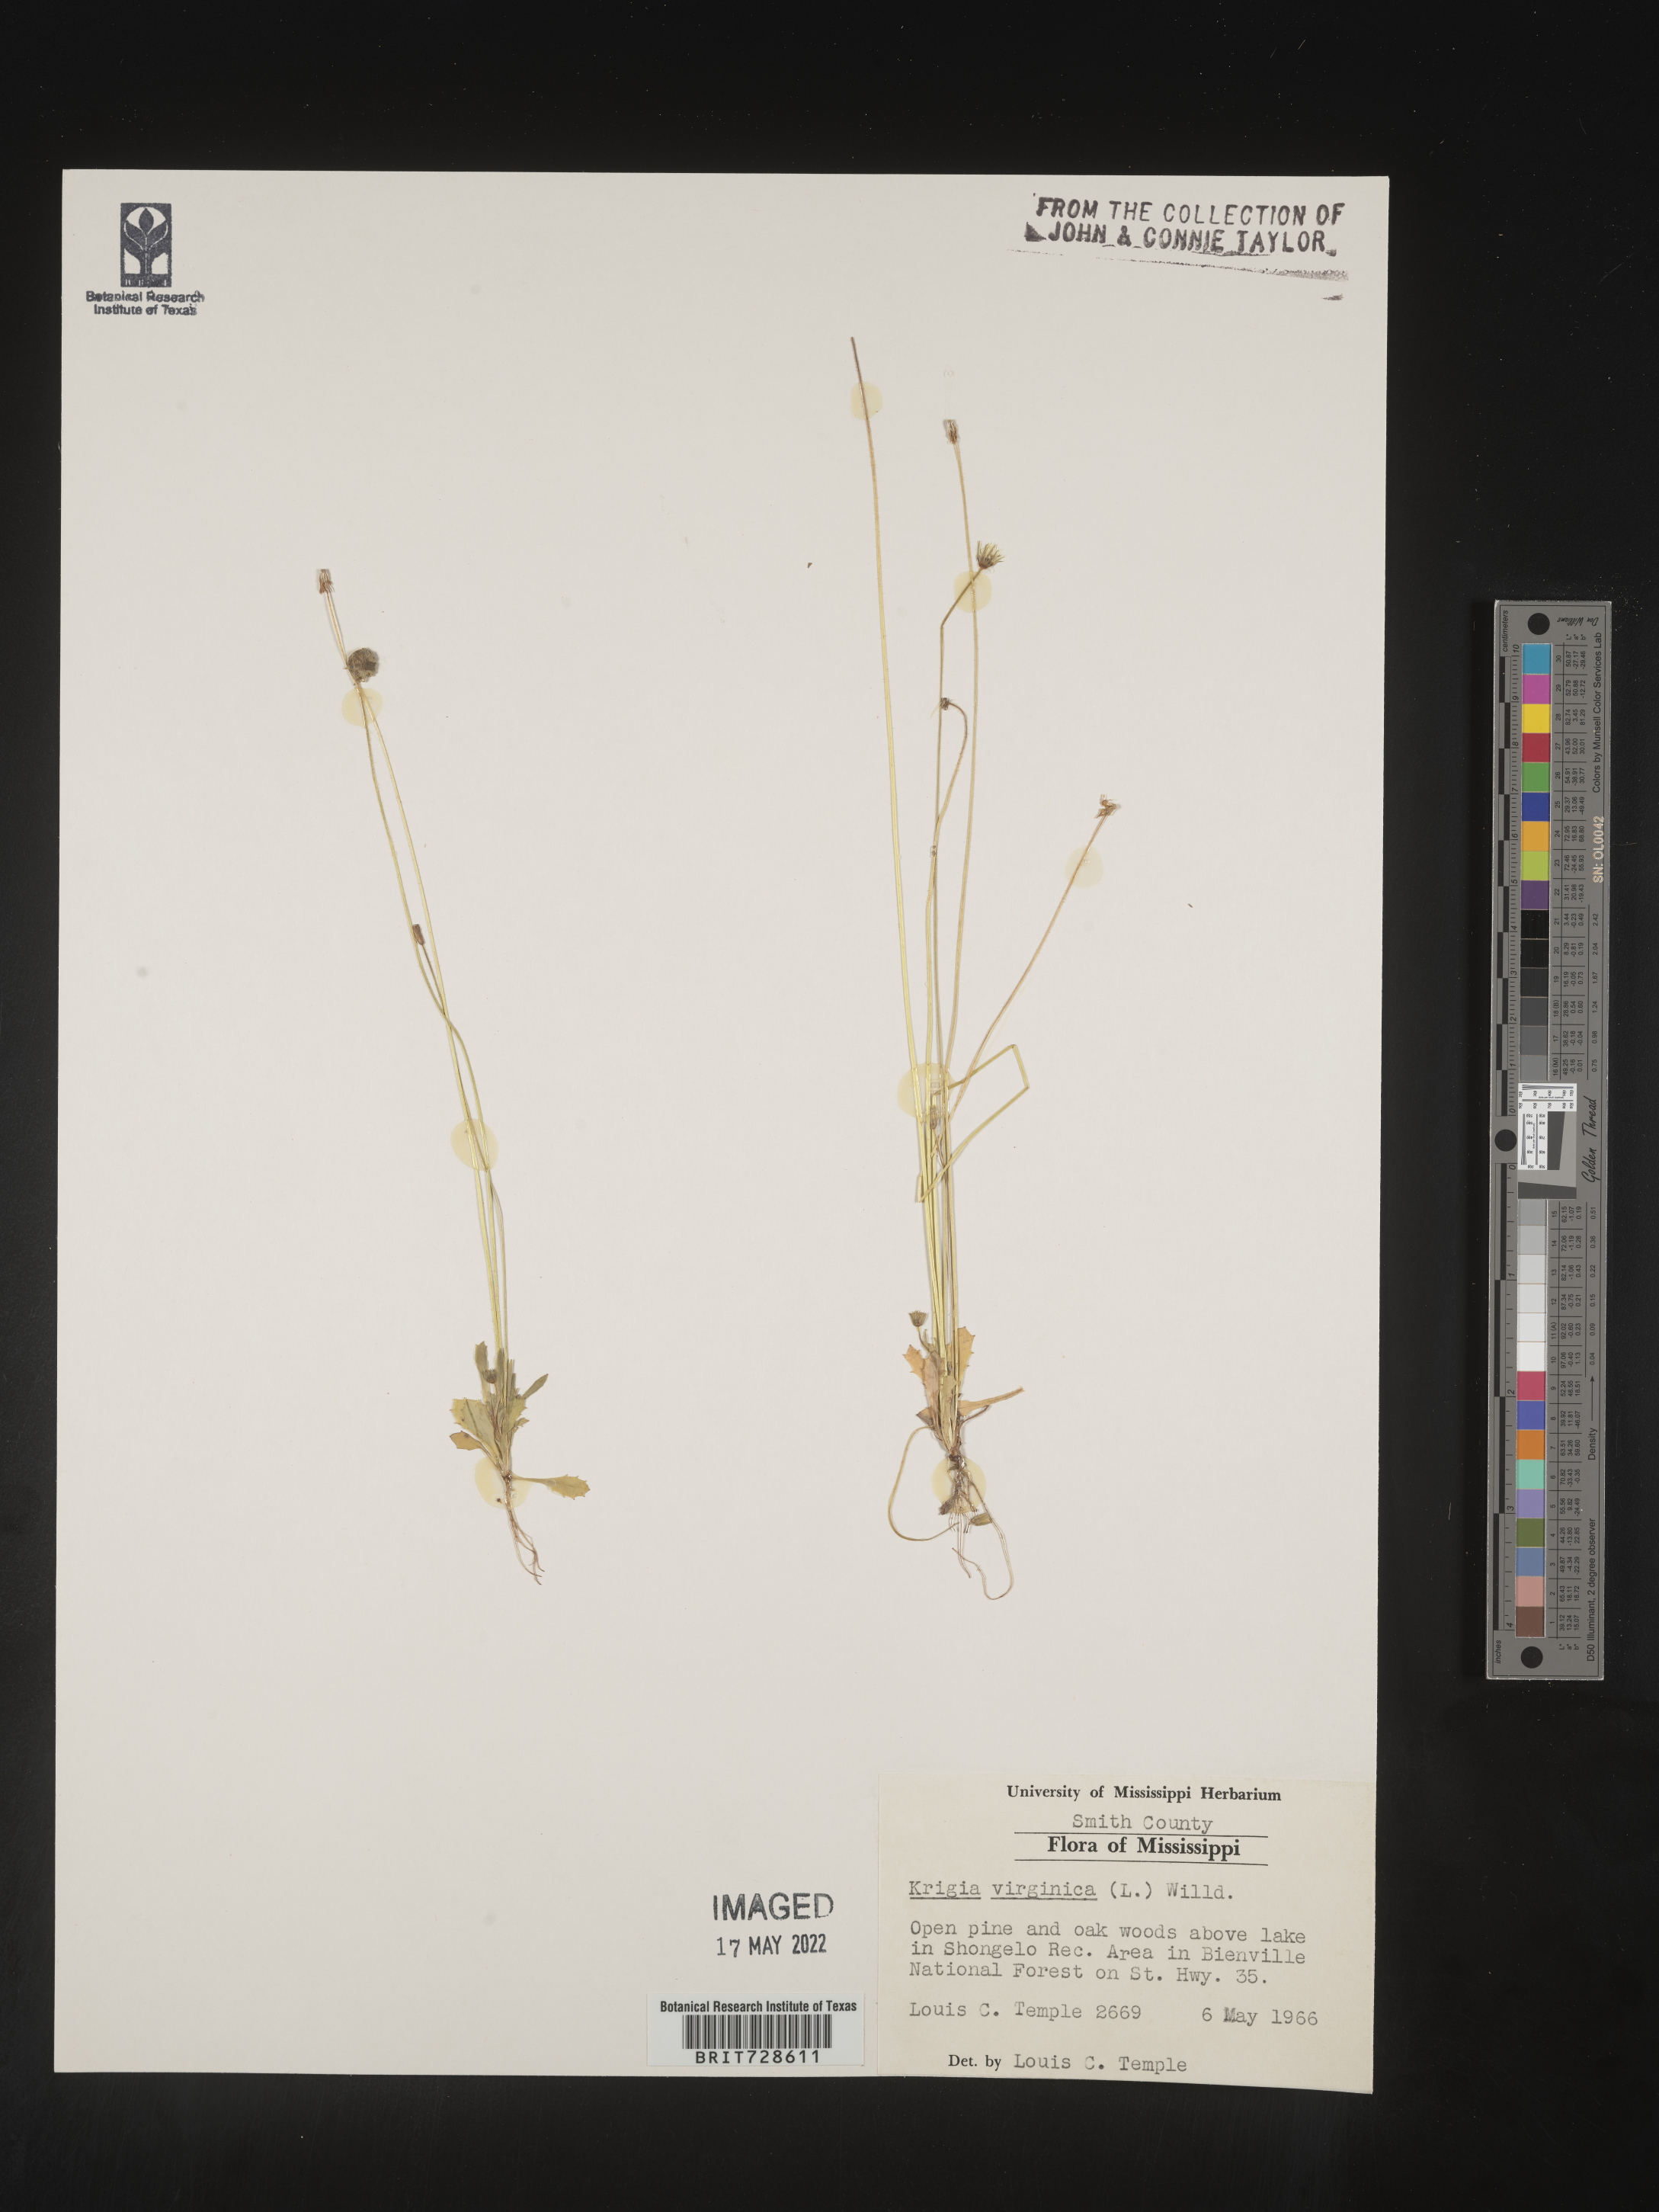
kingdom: Plantae
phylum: Tracheophyta
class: Magnoliopsida
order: Asterales
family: Asteraceae
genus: Krigia
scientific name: Krigia virginica
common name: Virginia dwarf-dandelion
